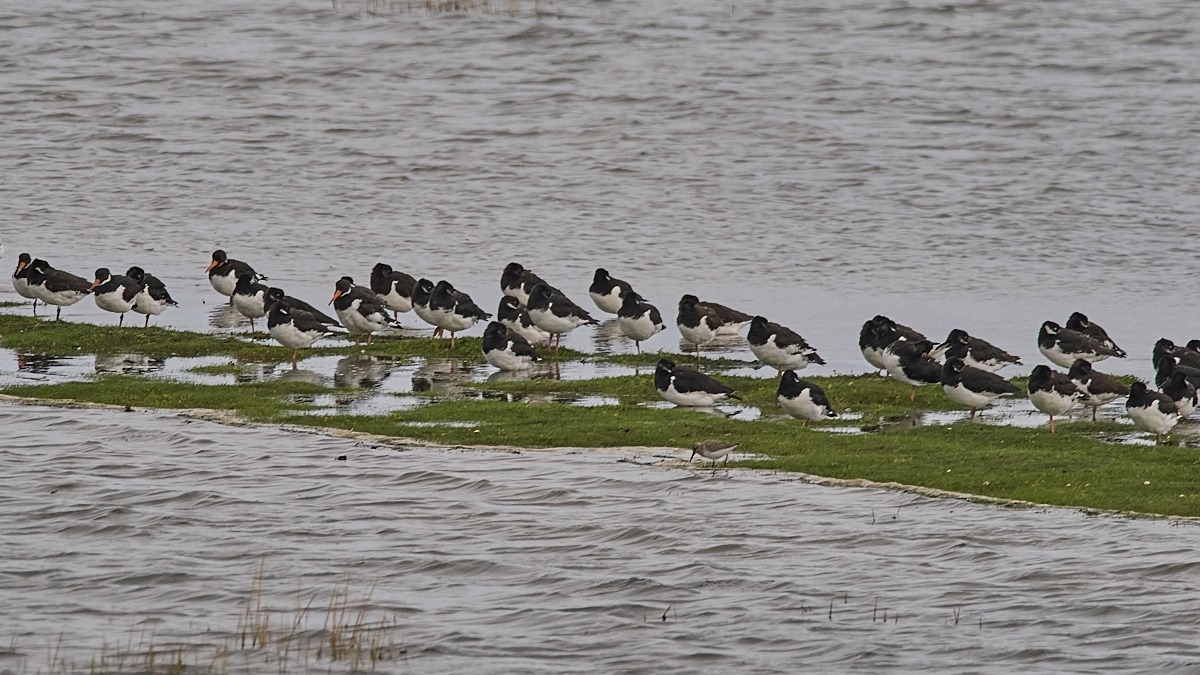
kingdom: Animalia
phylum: Chordata
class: Aves
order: Charadriiformes
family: Haematopodidae
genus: Haematopus
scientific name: Haematopus ostralegus
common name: Strandskade
